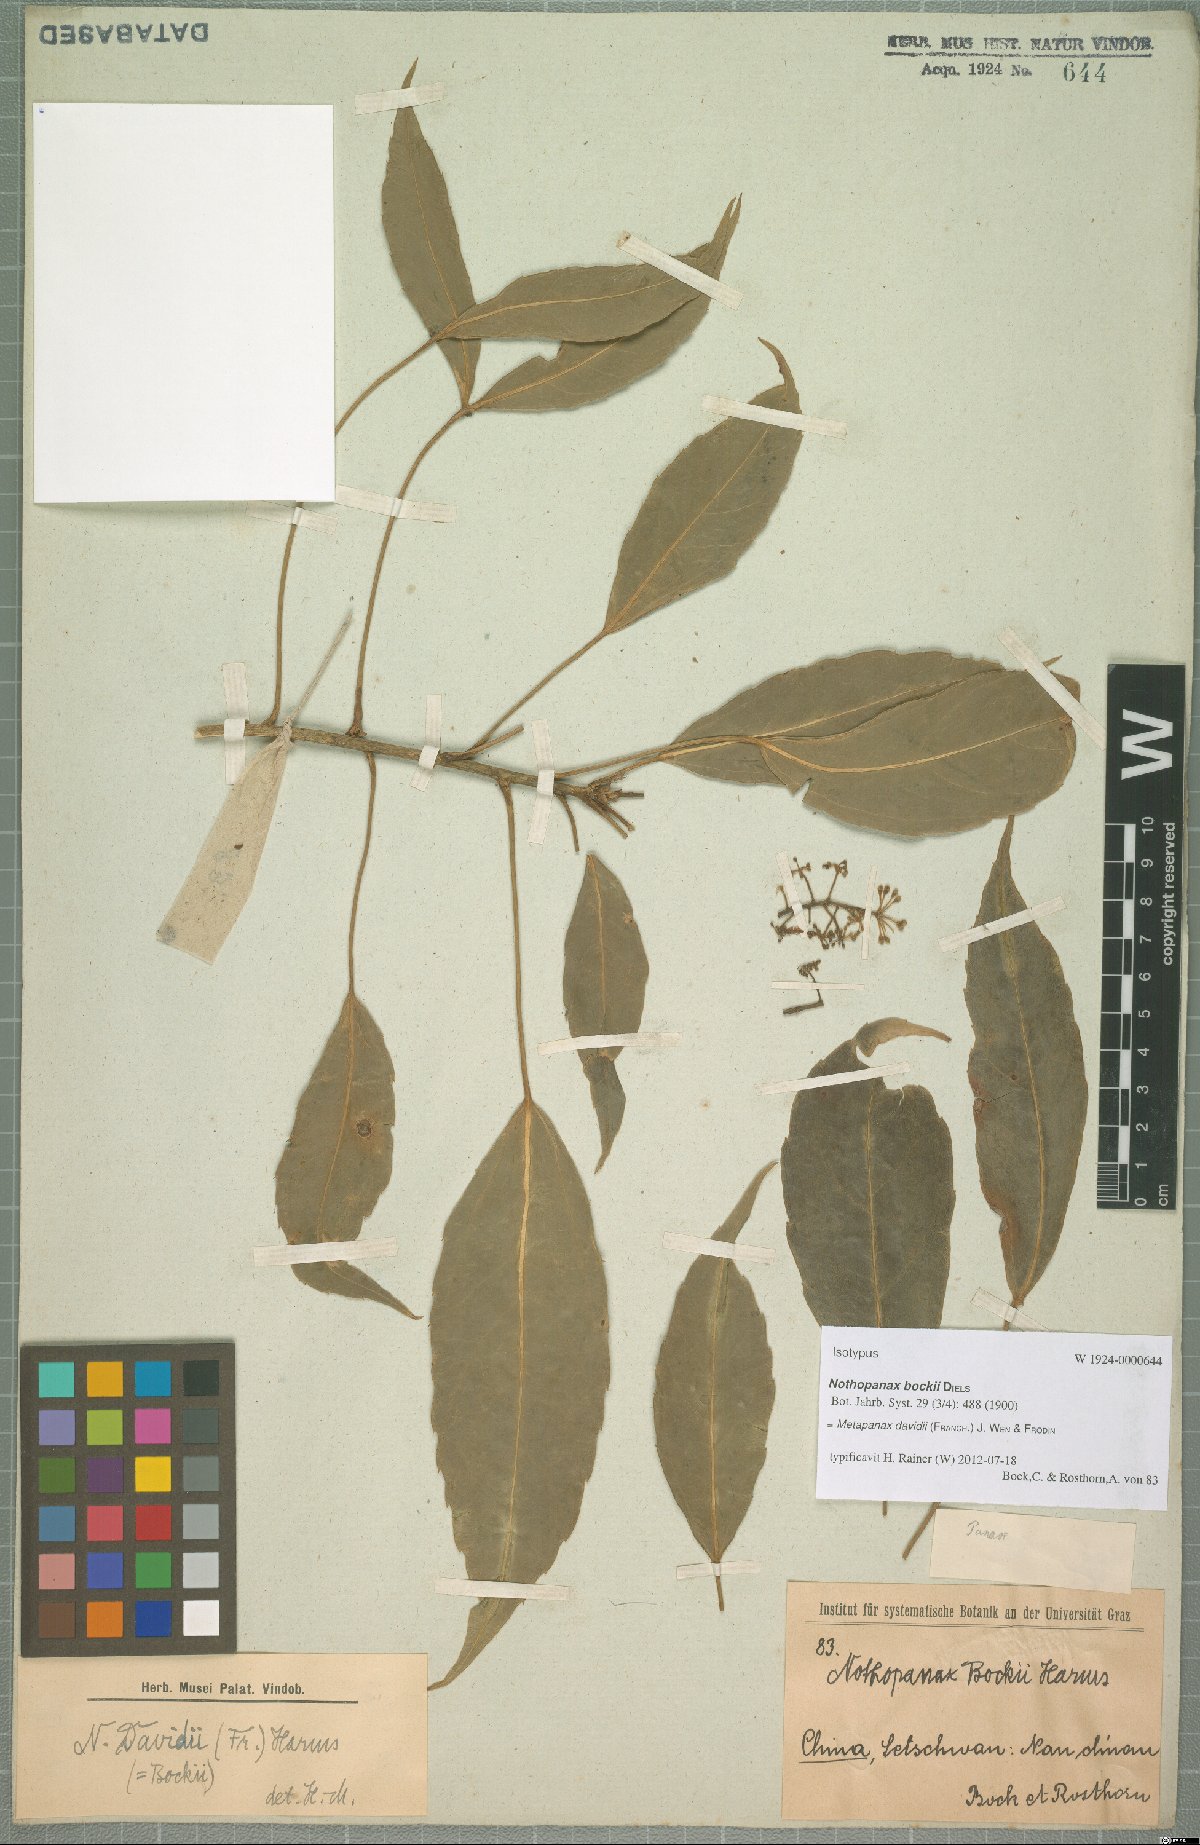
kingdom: Plantae
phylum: Tracheophyta
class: Magnoliopsida
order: Apiales
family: Araliaceae
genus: Metapanax
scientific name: Metapanax davidii
